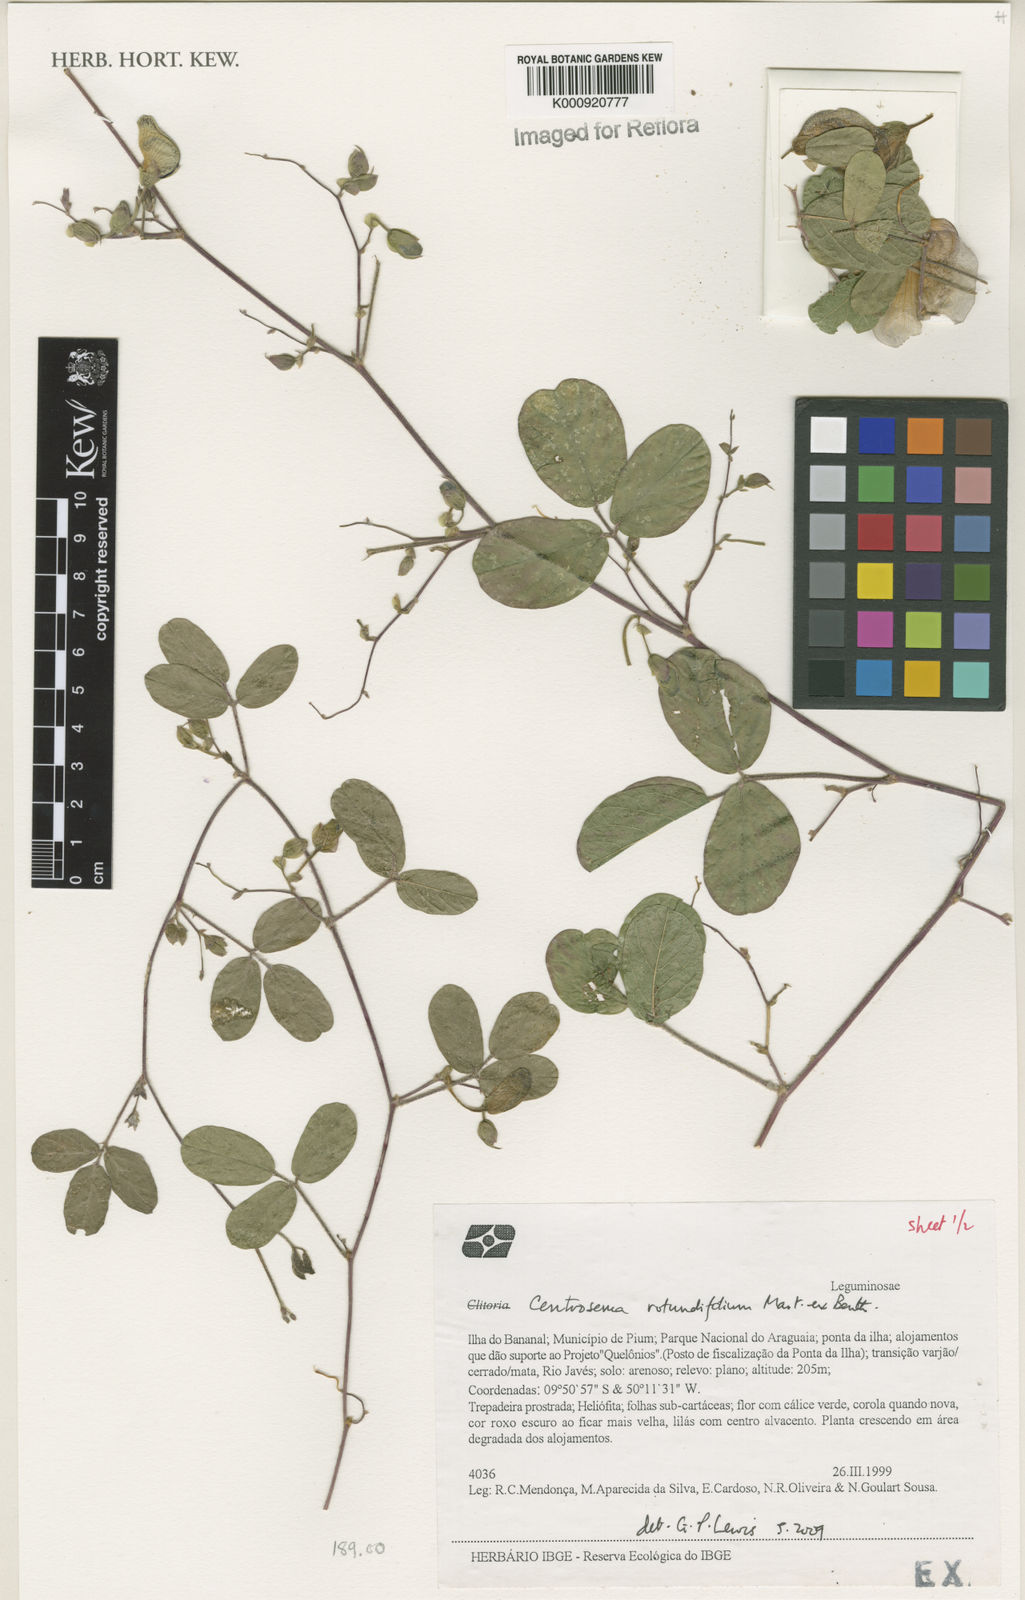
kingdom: Plantae
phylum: Tracheophyta
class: Magnoliopsida
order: Fabales
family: Fabaceae
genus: Centrosema
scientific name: Centrosema rotundifolium
